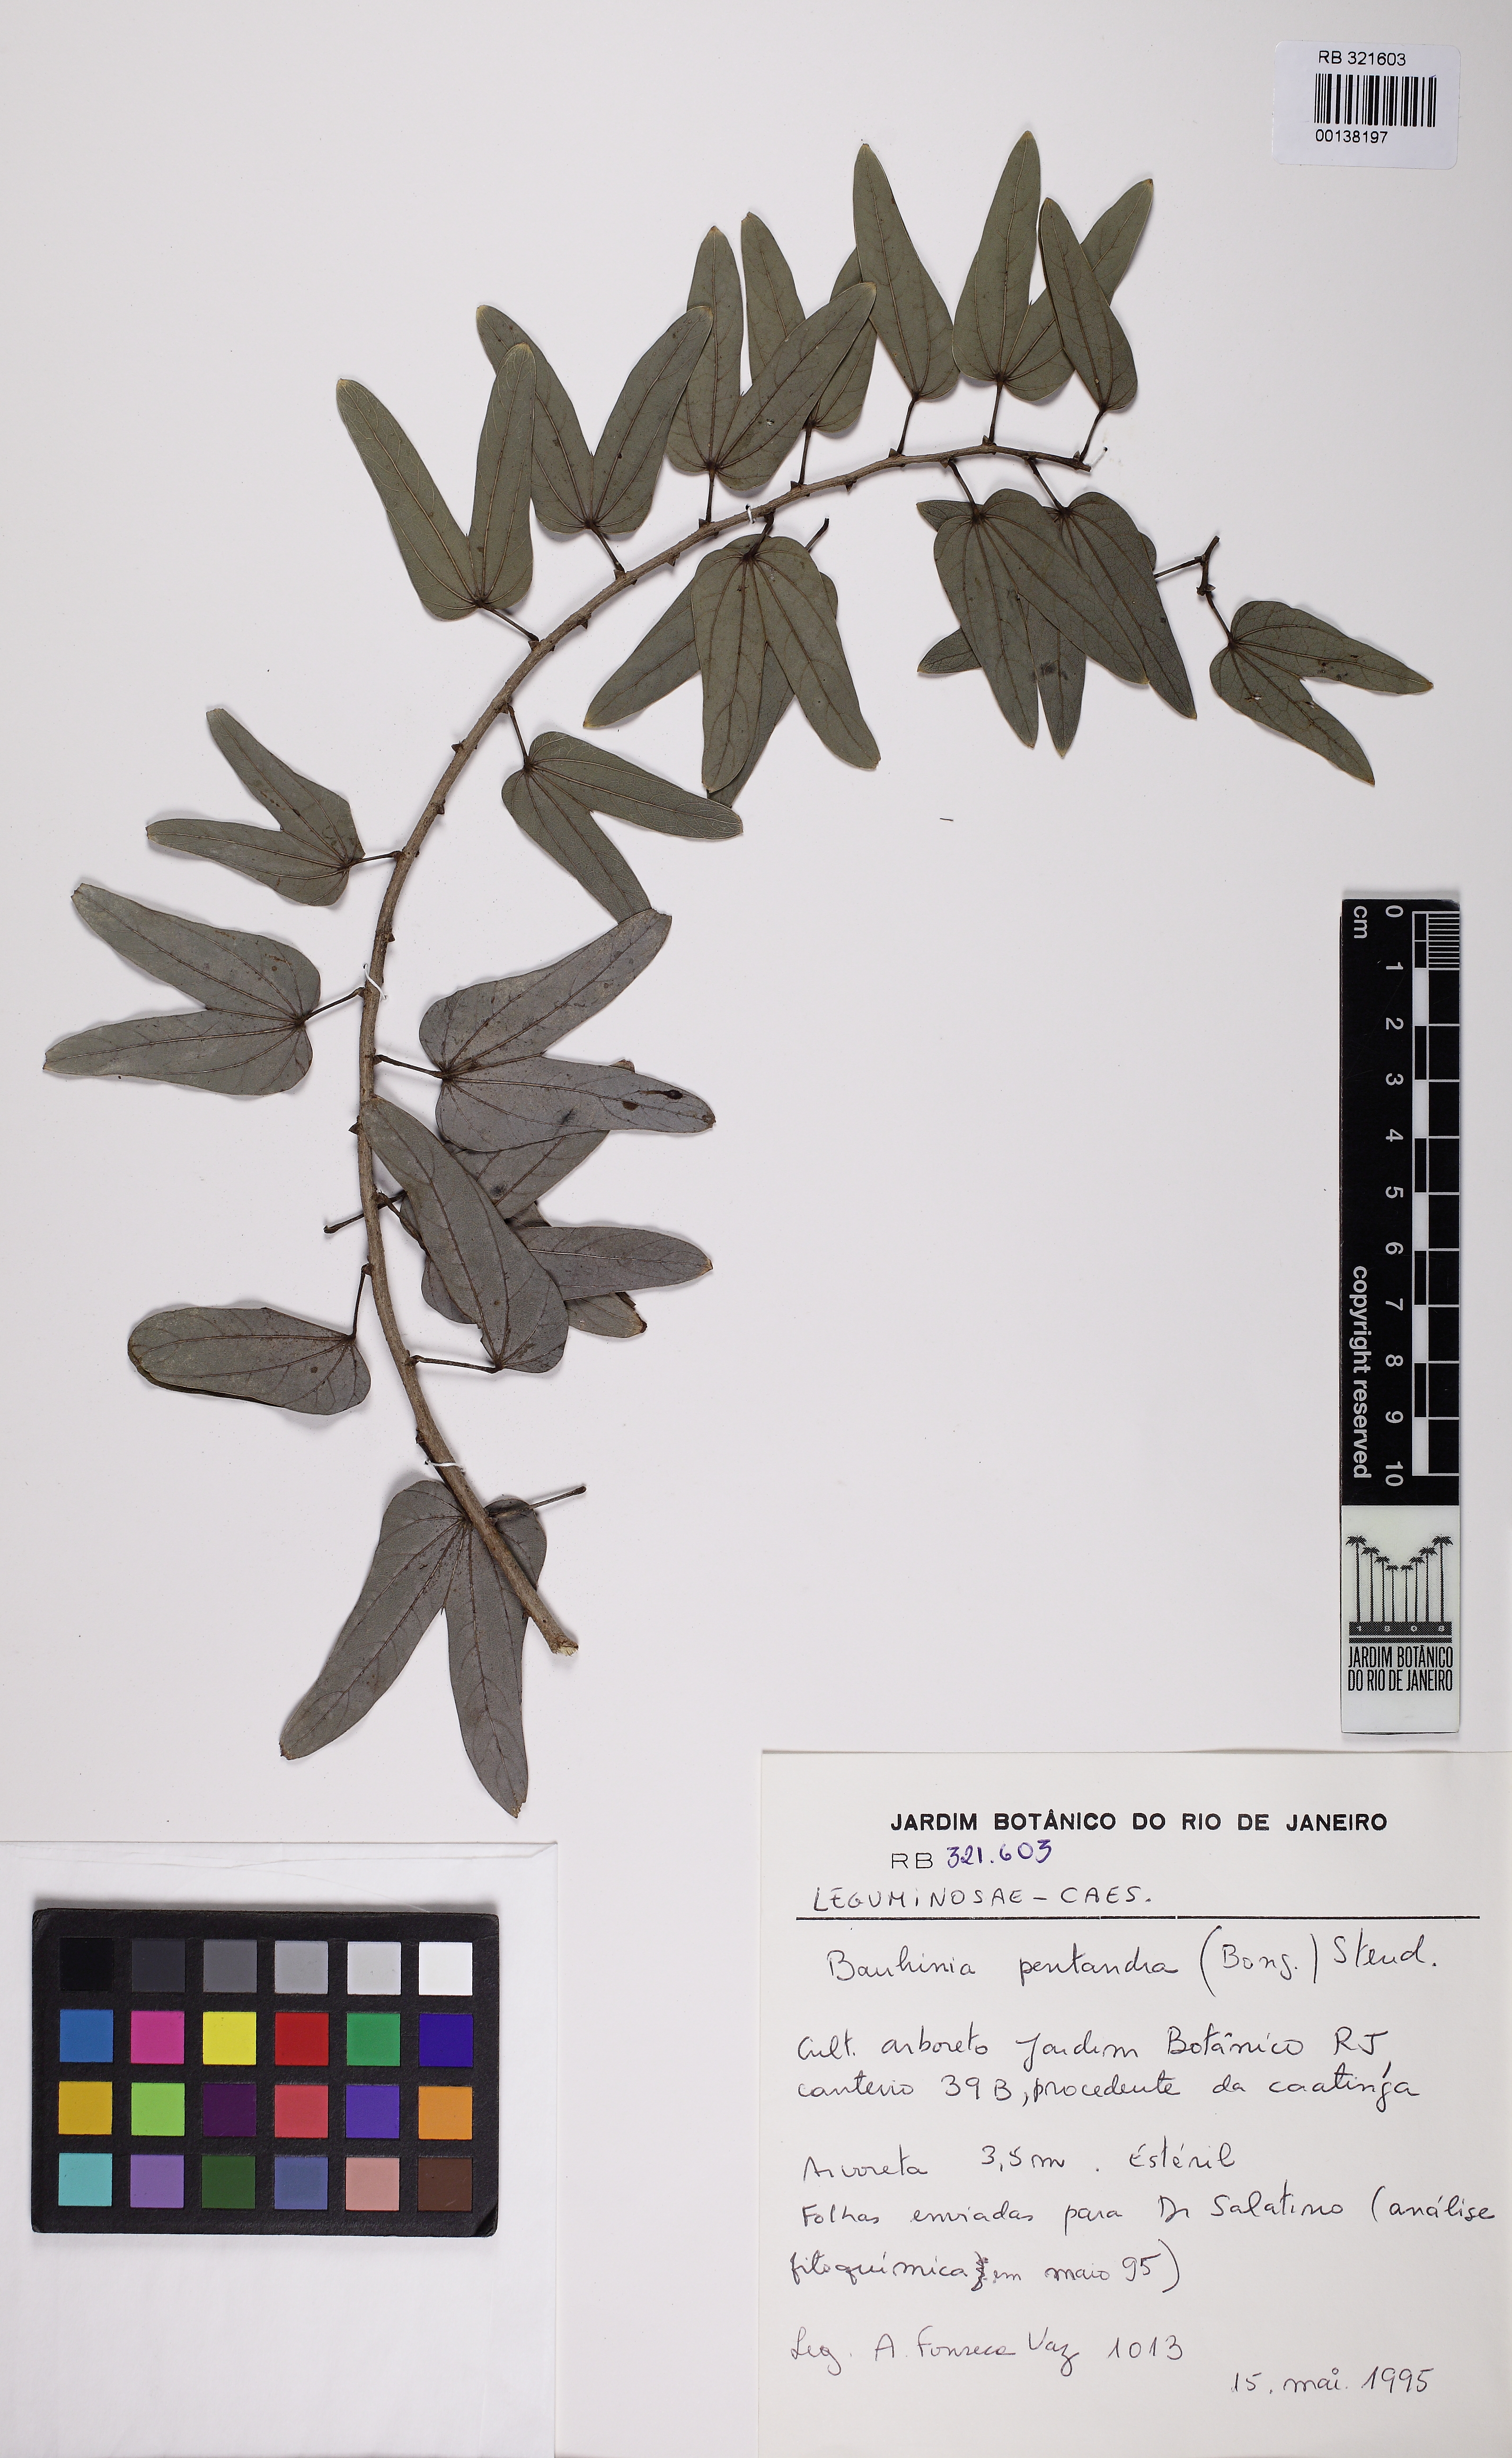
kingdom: Plantae
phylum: Tracheophyta
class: Magnoliopsida
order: Fabales
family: Fabaceae
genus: Bauhinia
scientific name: Bauhinia pentandra
